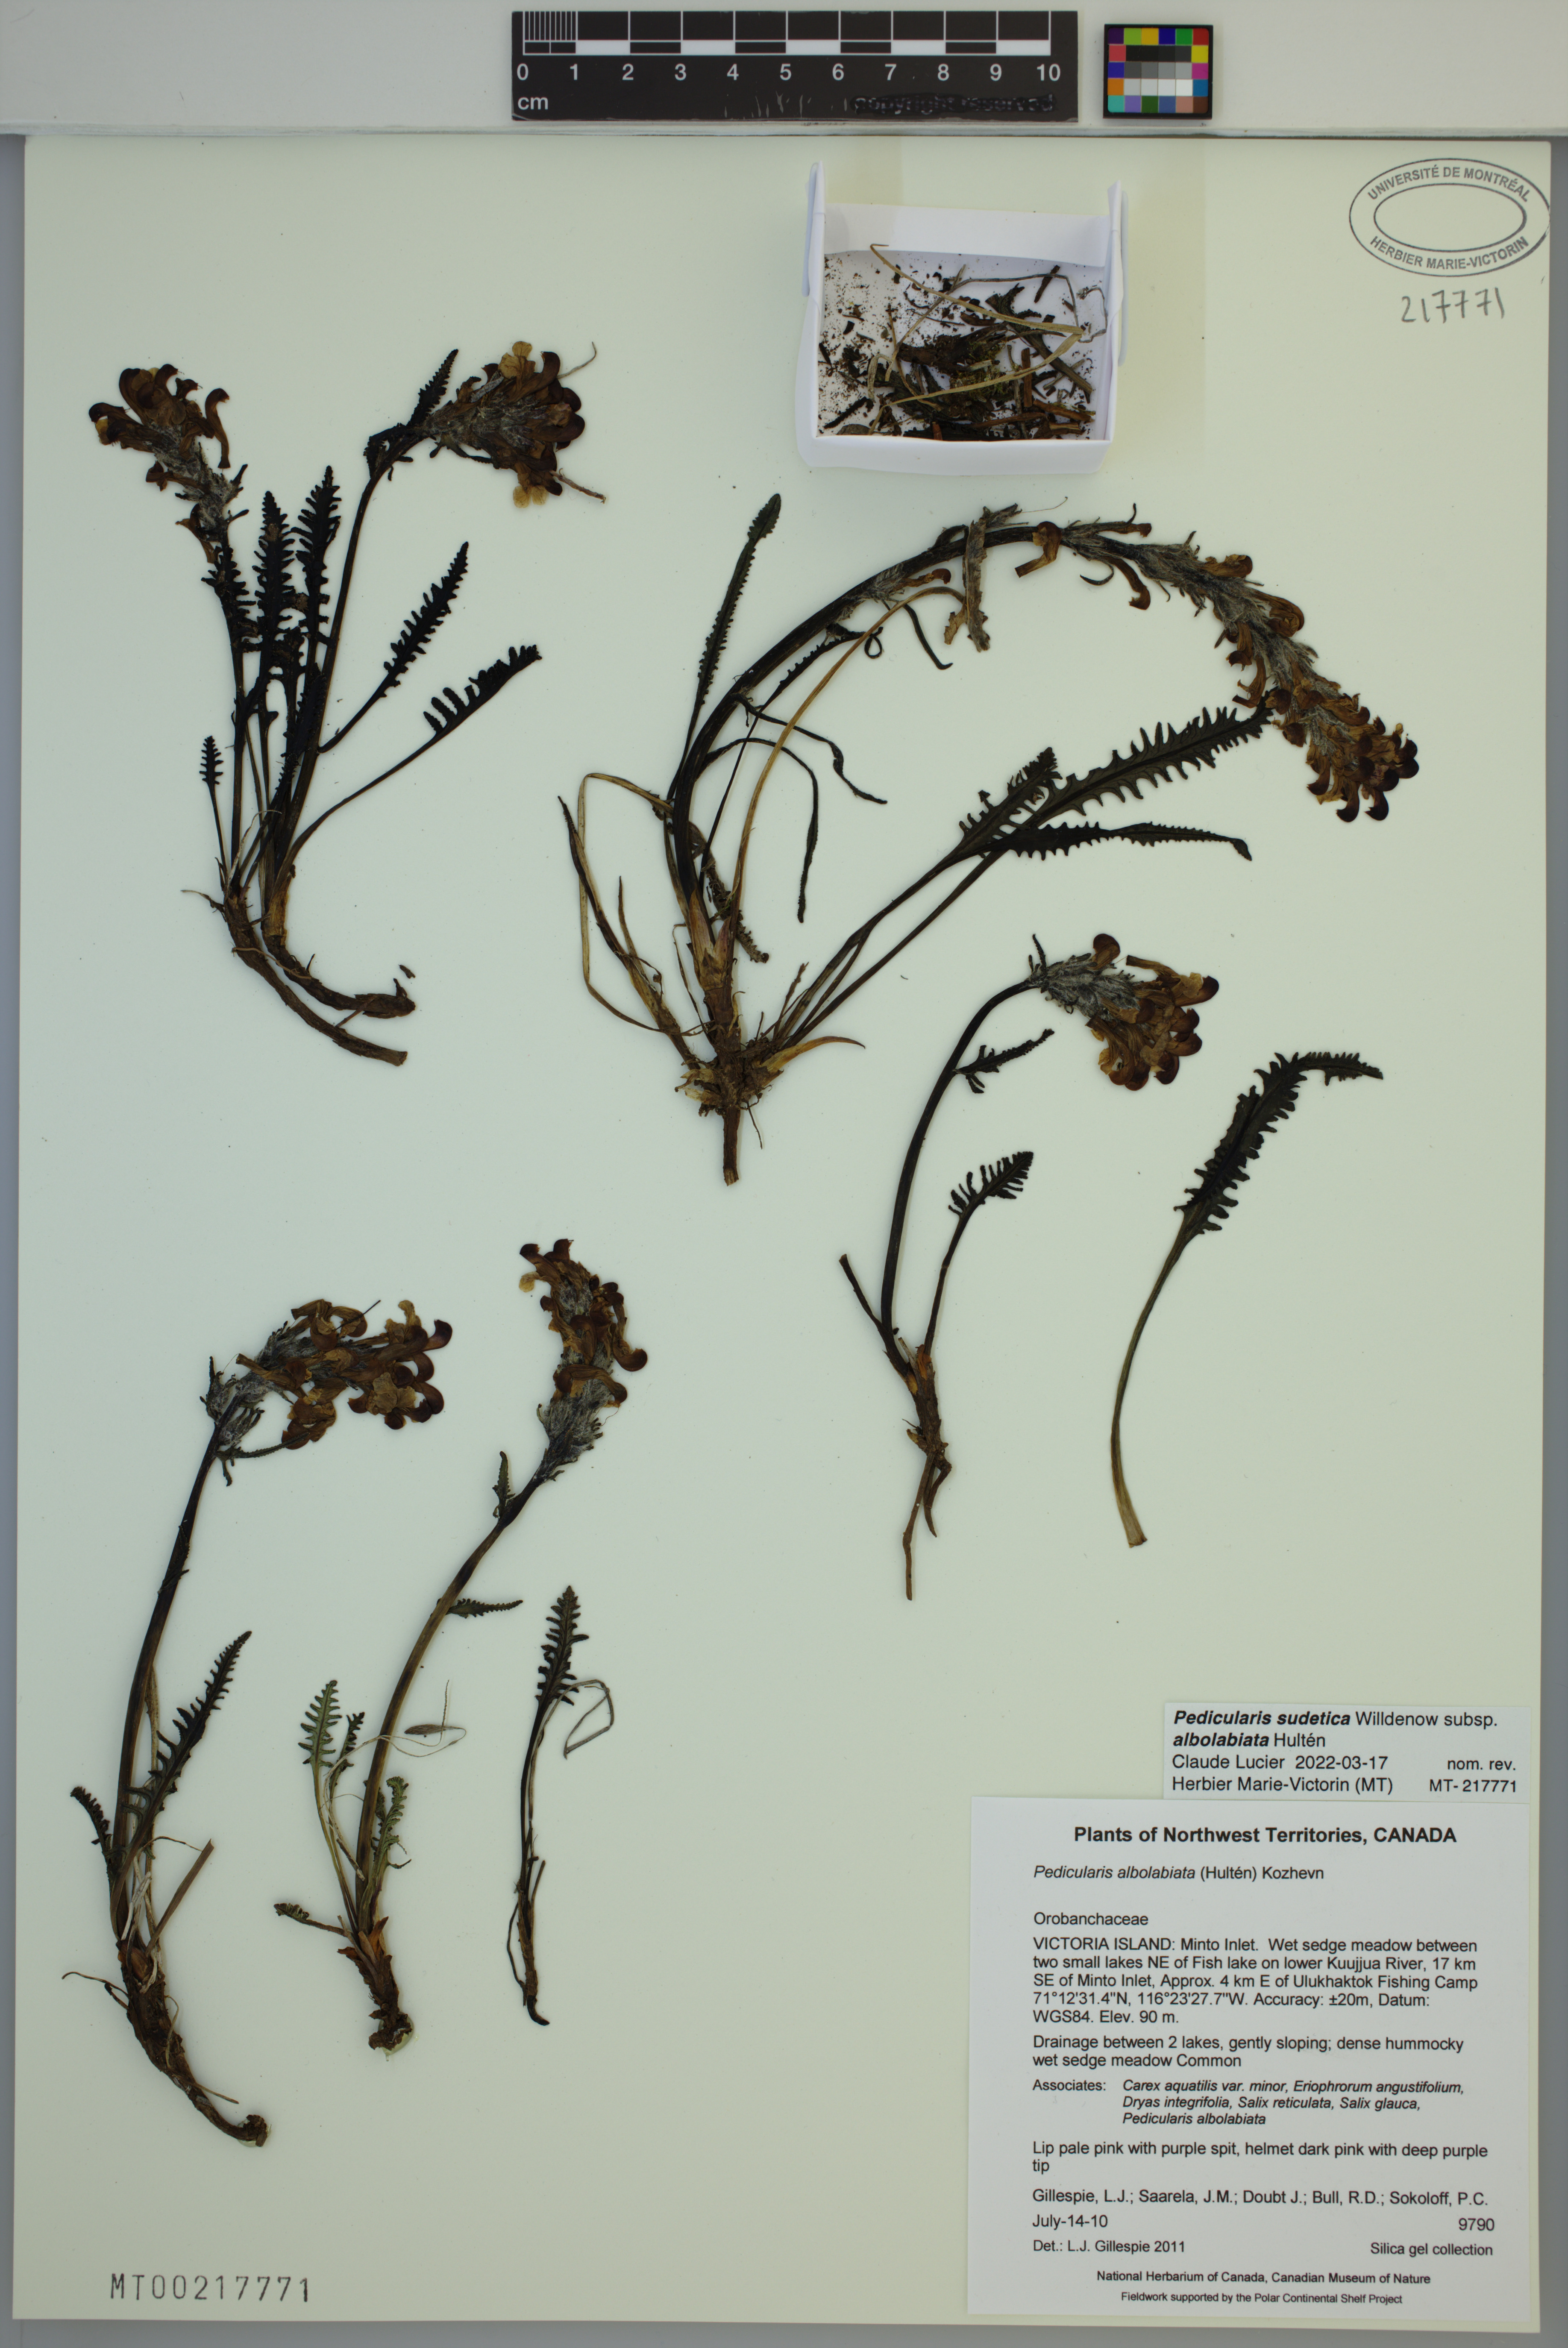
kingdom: Plantae
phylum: Tracheophyta
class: Magnoliopsida
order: Lamiales
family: Orobanchaceae
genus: Pedicularis
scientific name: Pedicularis novaiae-zemliae
